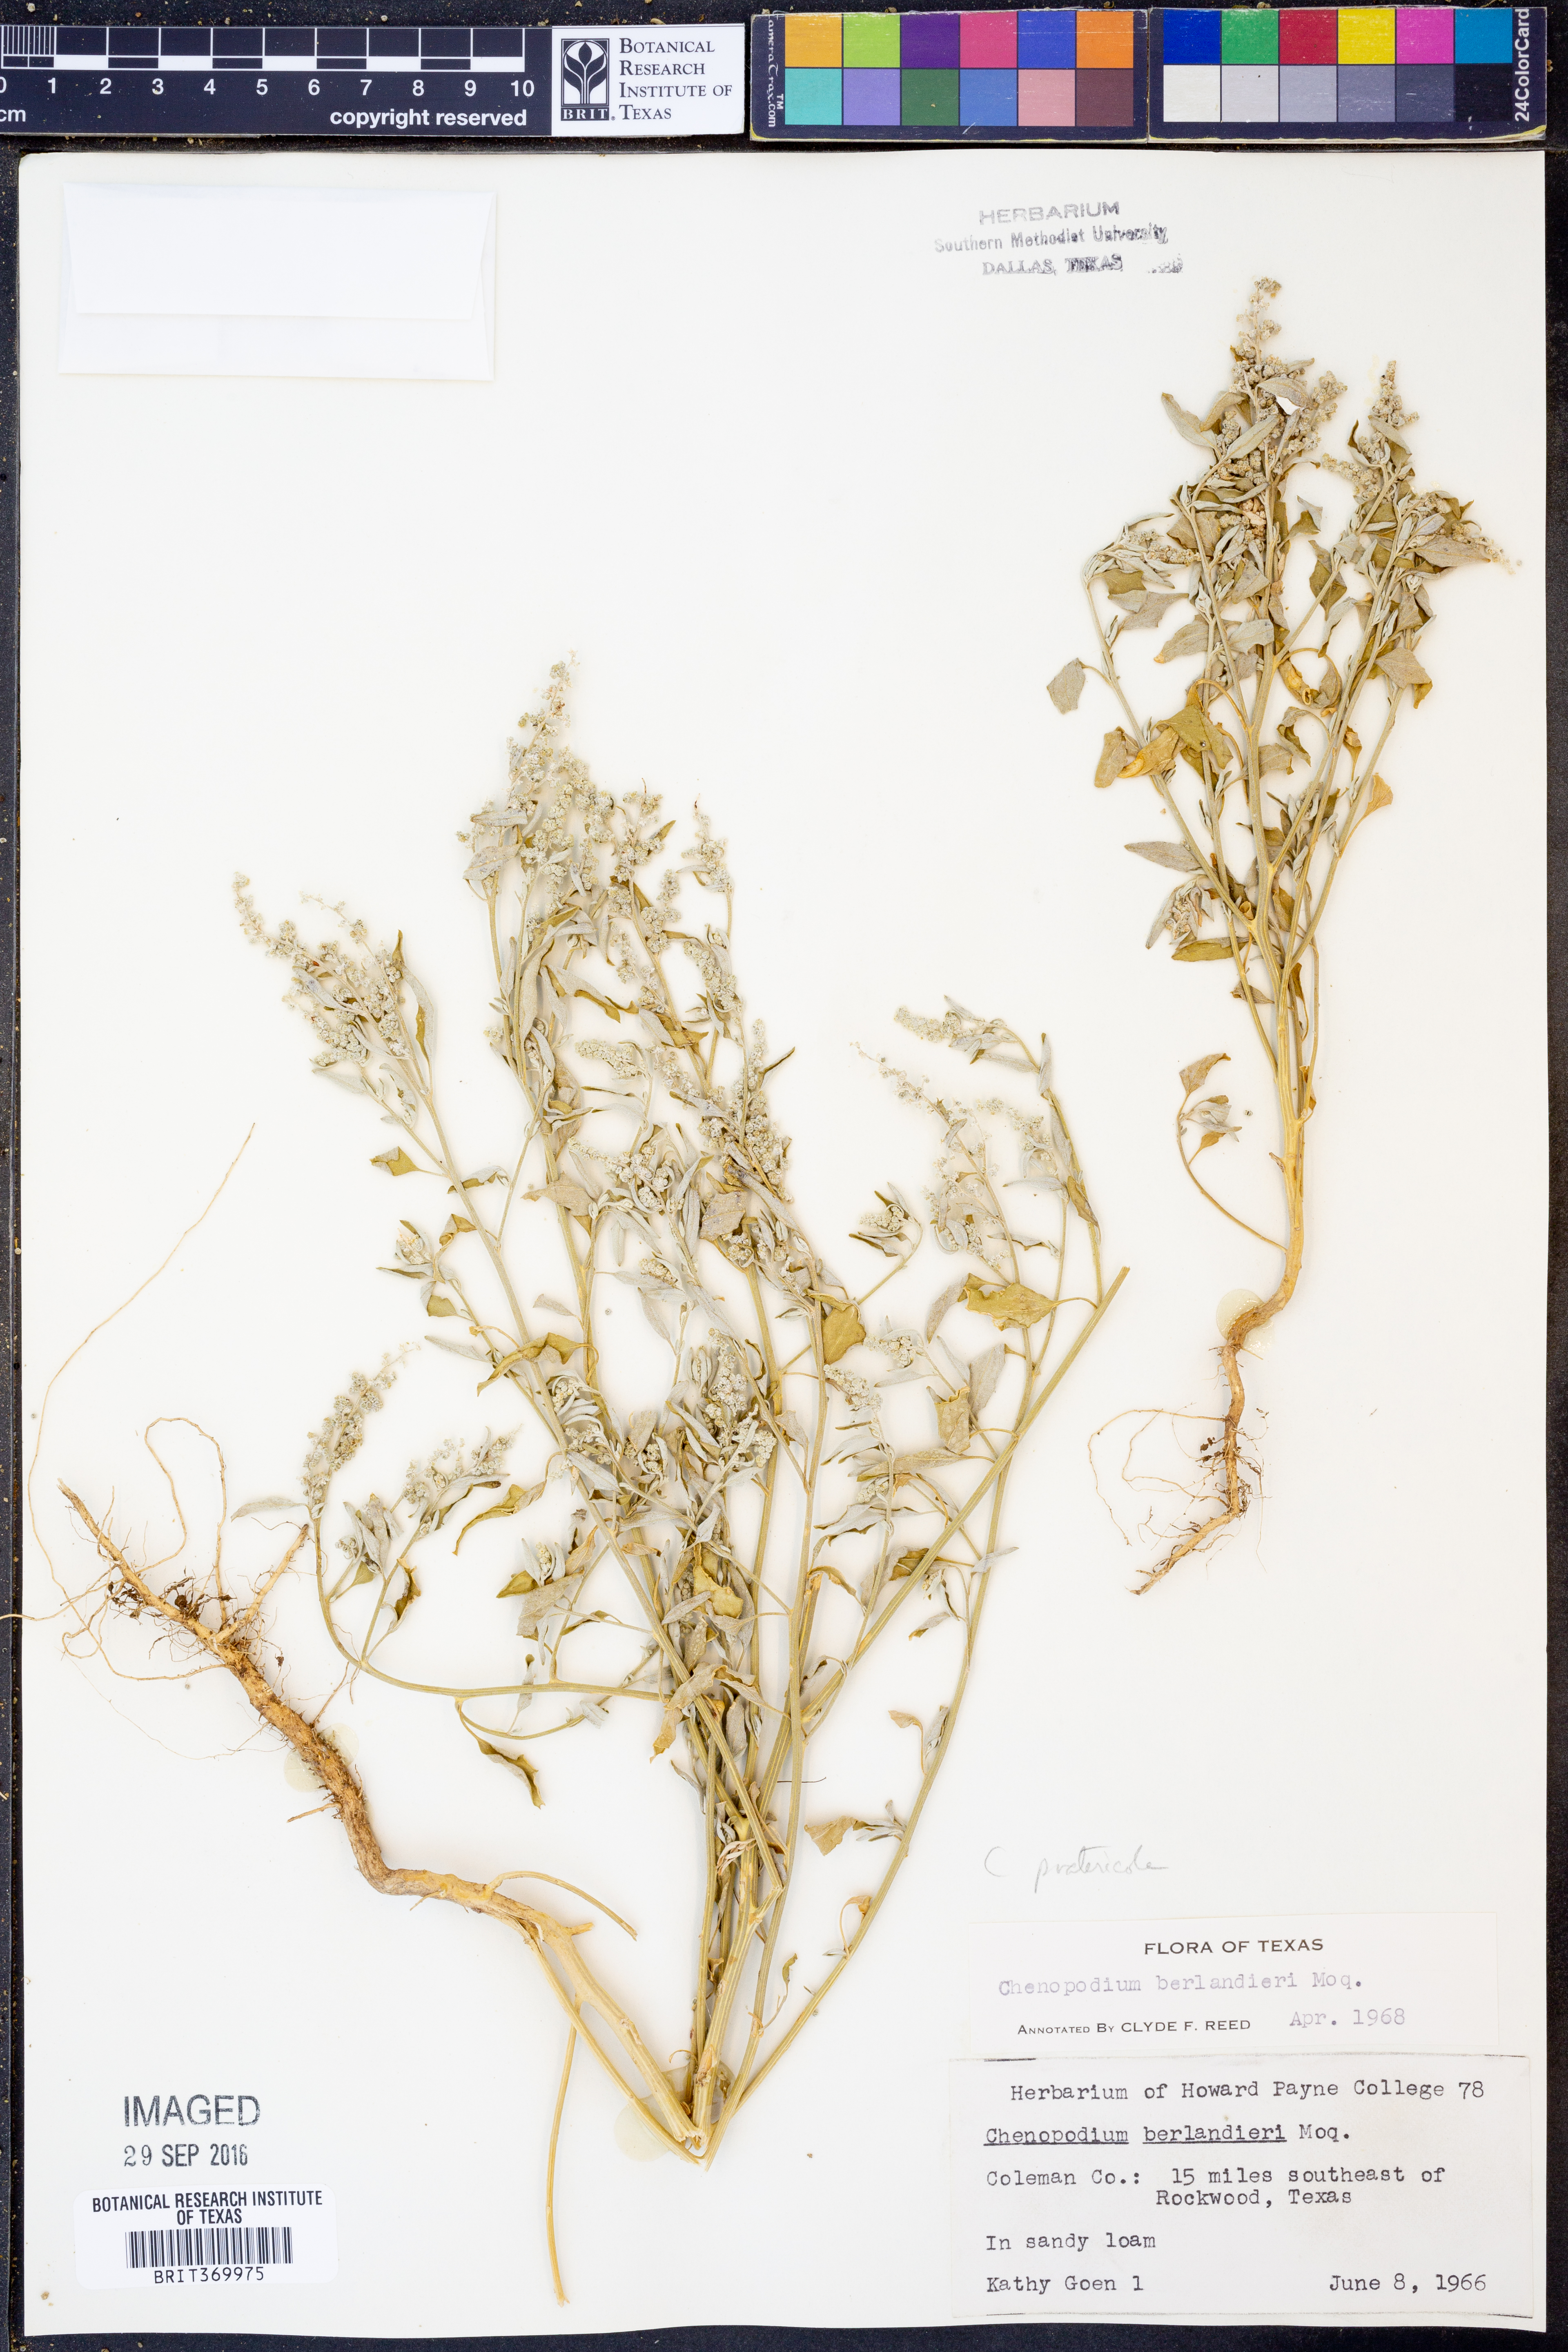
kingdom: Plantae
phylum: Tracheophyta
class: Magnoliopsida
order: Caryophyllales
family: Amaranthaceae
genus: Chenopodium
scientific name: Chenopodium pratericola
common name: Desert goosefoot
